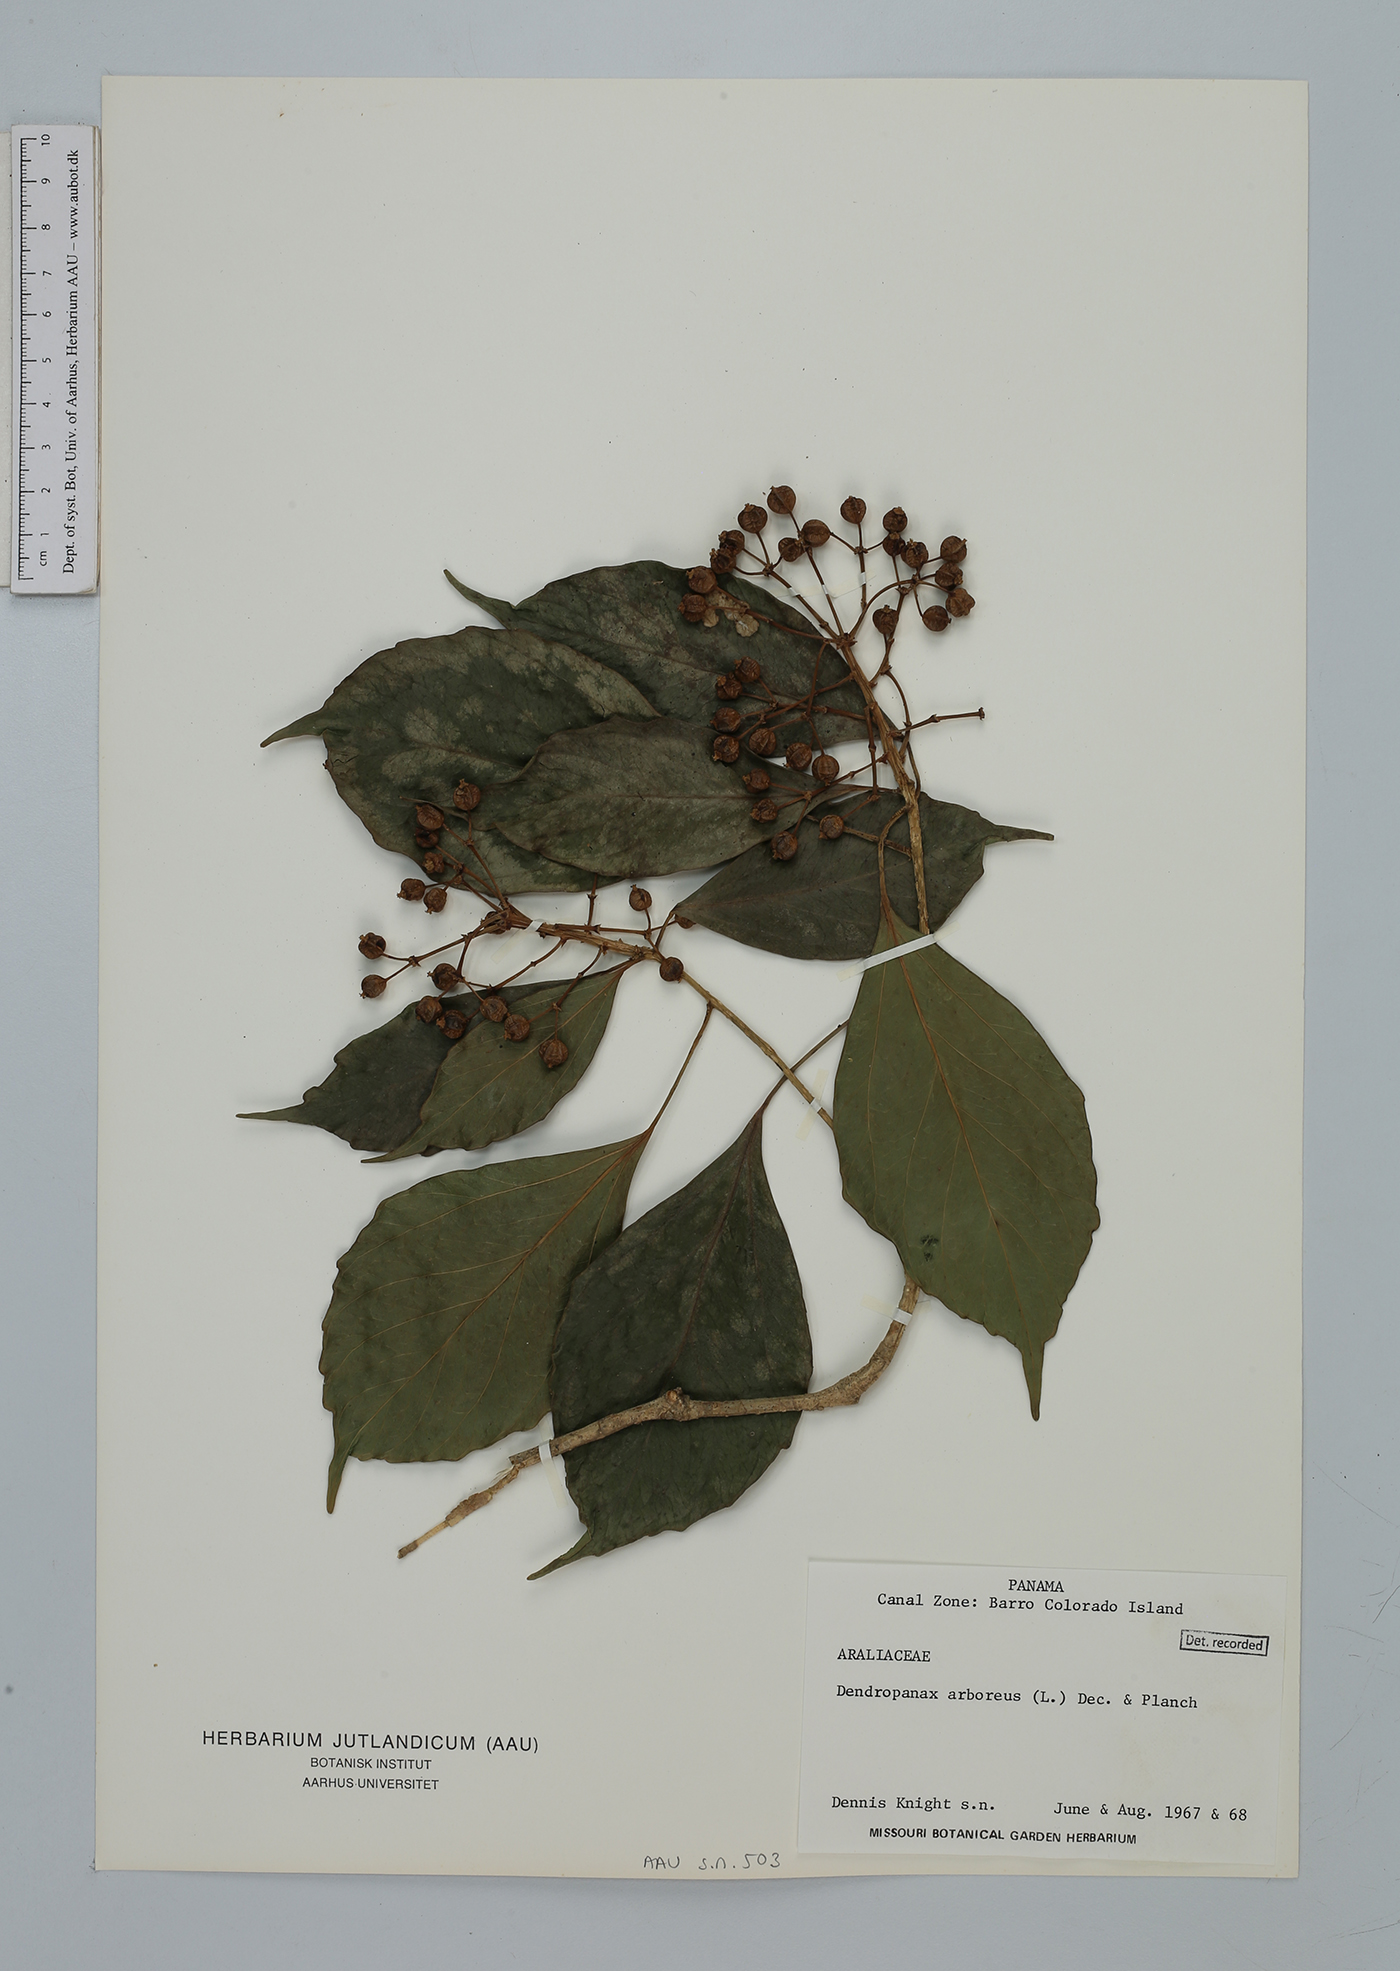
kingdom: Plantae
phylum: Tracheophyta
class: Magnoliopsida
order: Apiales
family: Araliaceae
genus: Dendropanax
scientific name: Dendropanax arboreus
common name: Potato-wood
